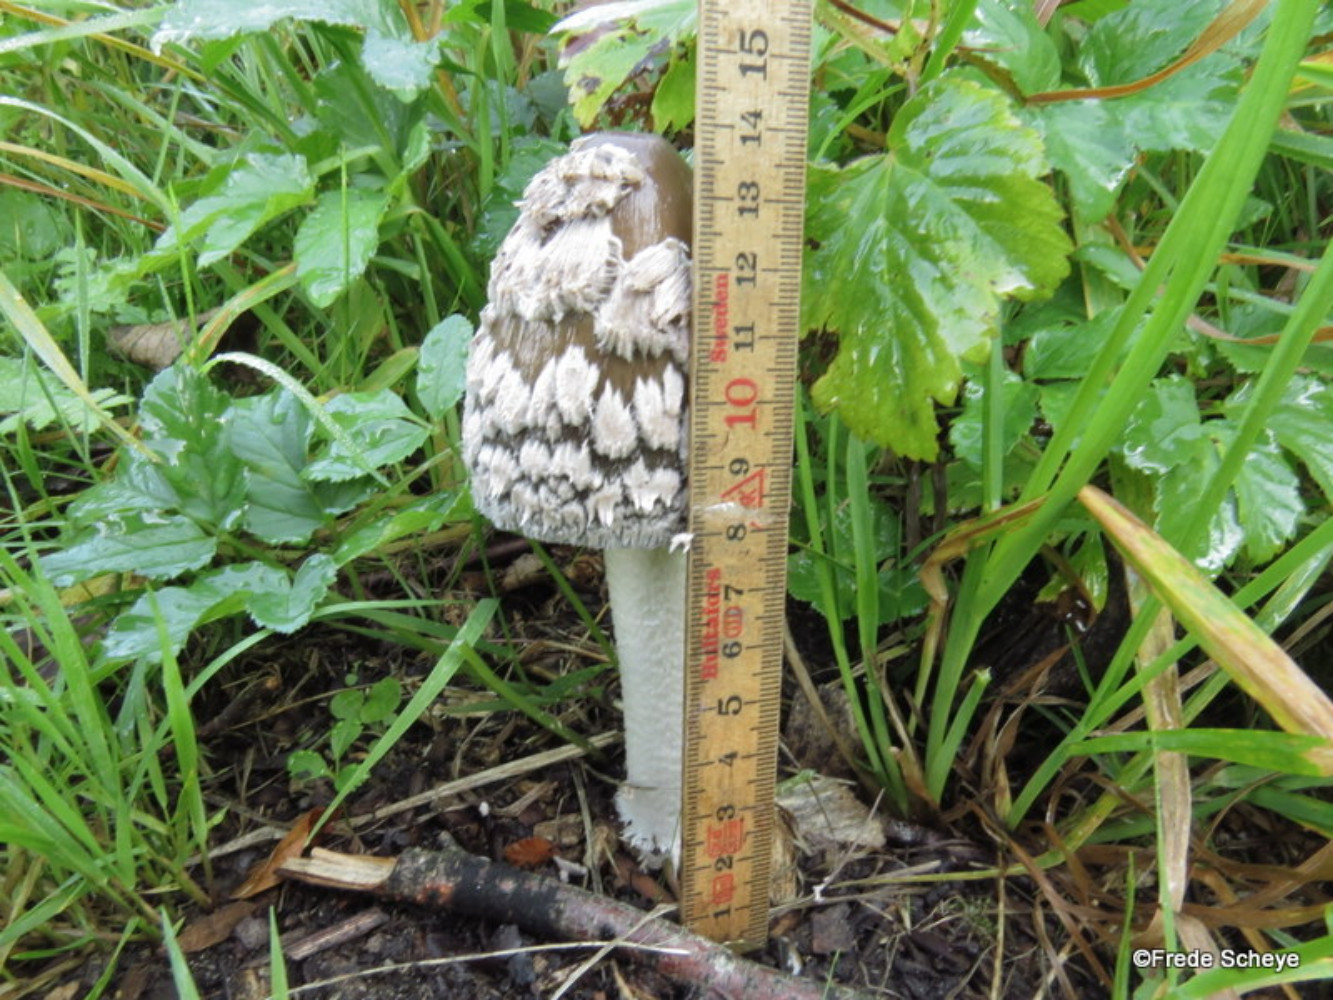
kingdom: Fungi
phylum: Basidiomycota
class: Agaricomycetes
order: Agaricales
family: Psathyrellaceae
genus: Coprinopsis
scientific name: Coprinopsis picacea
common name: skade-blækhat
